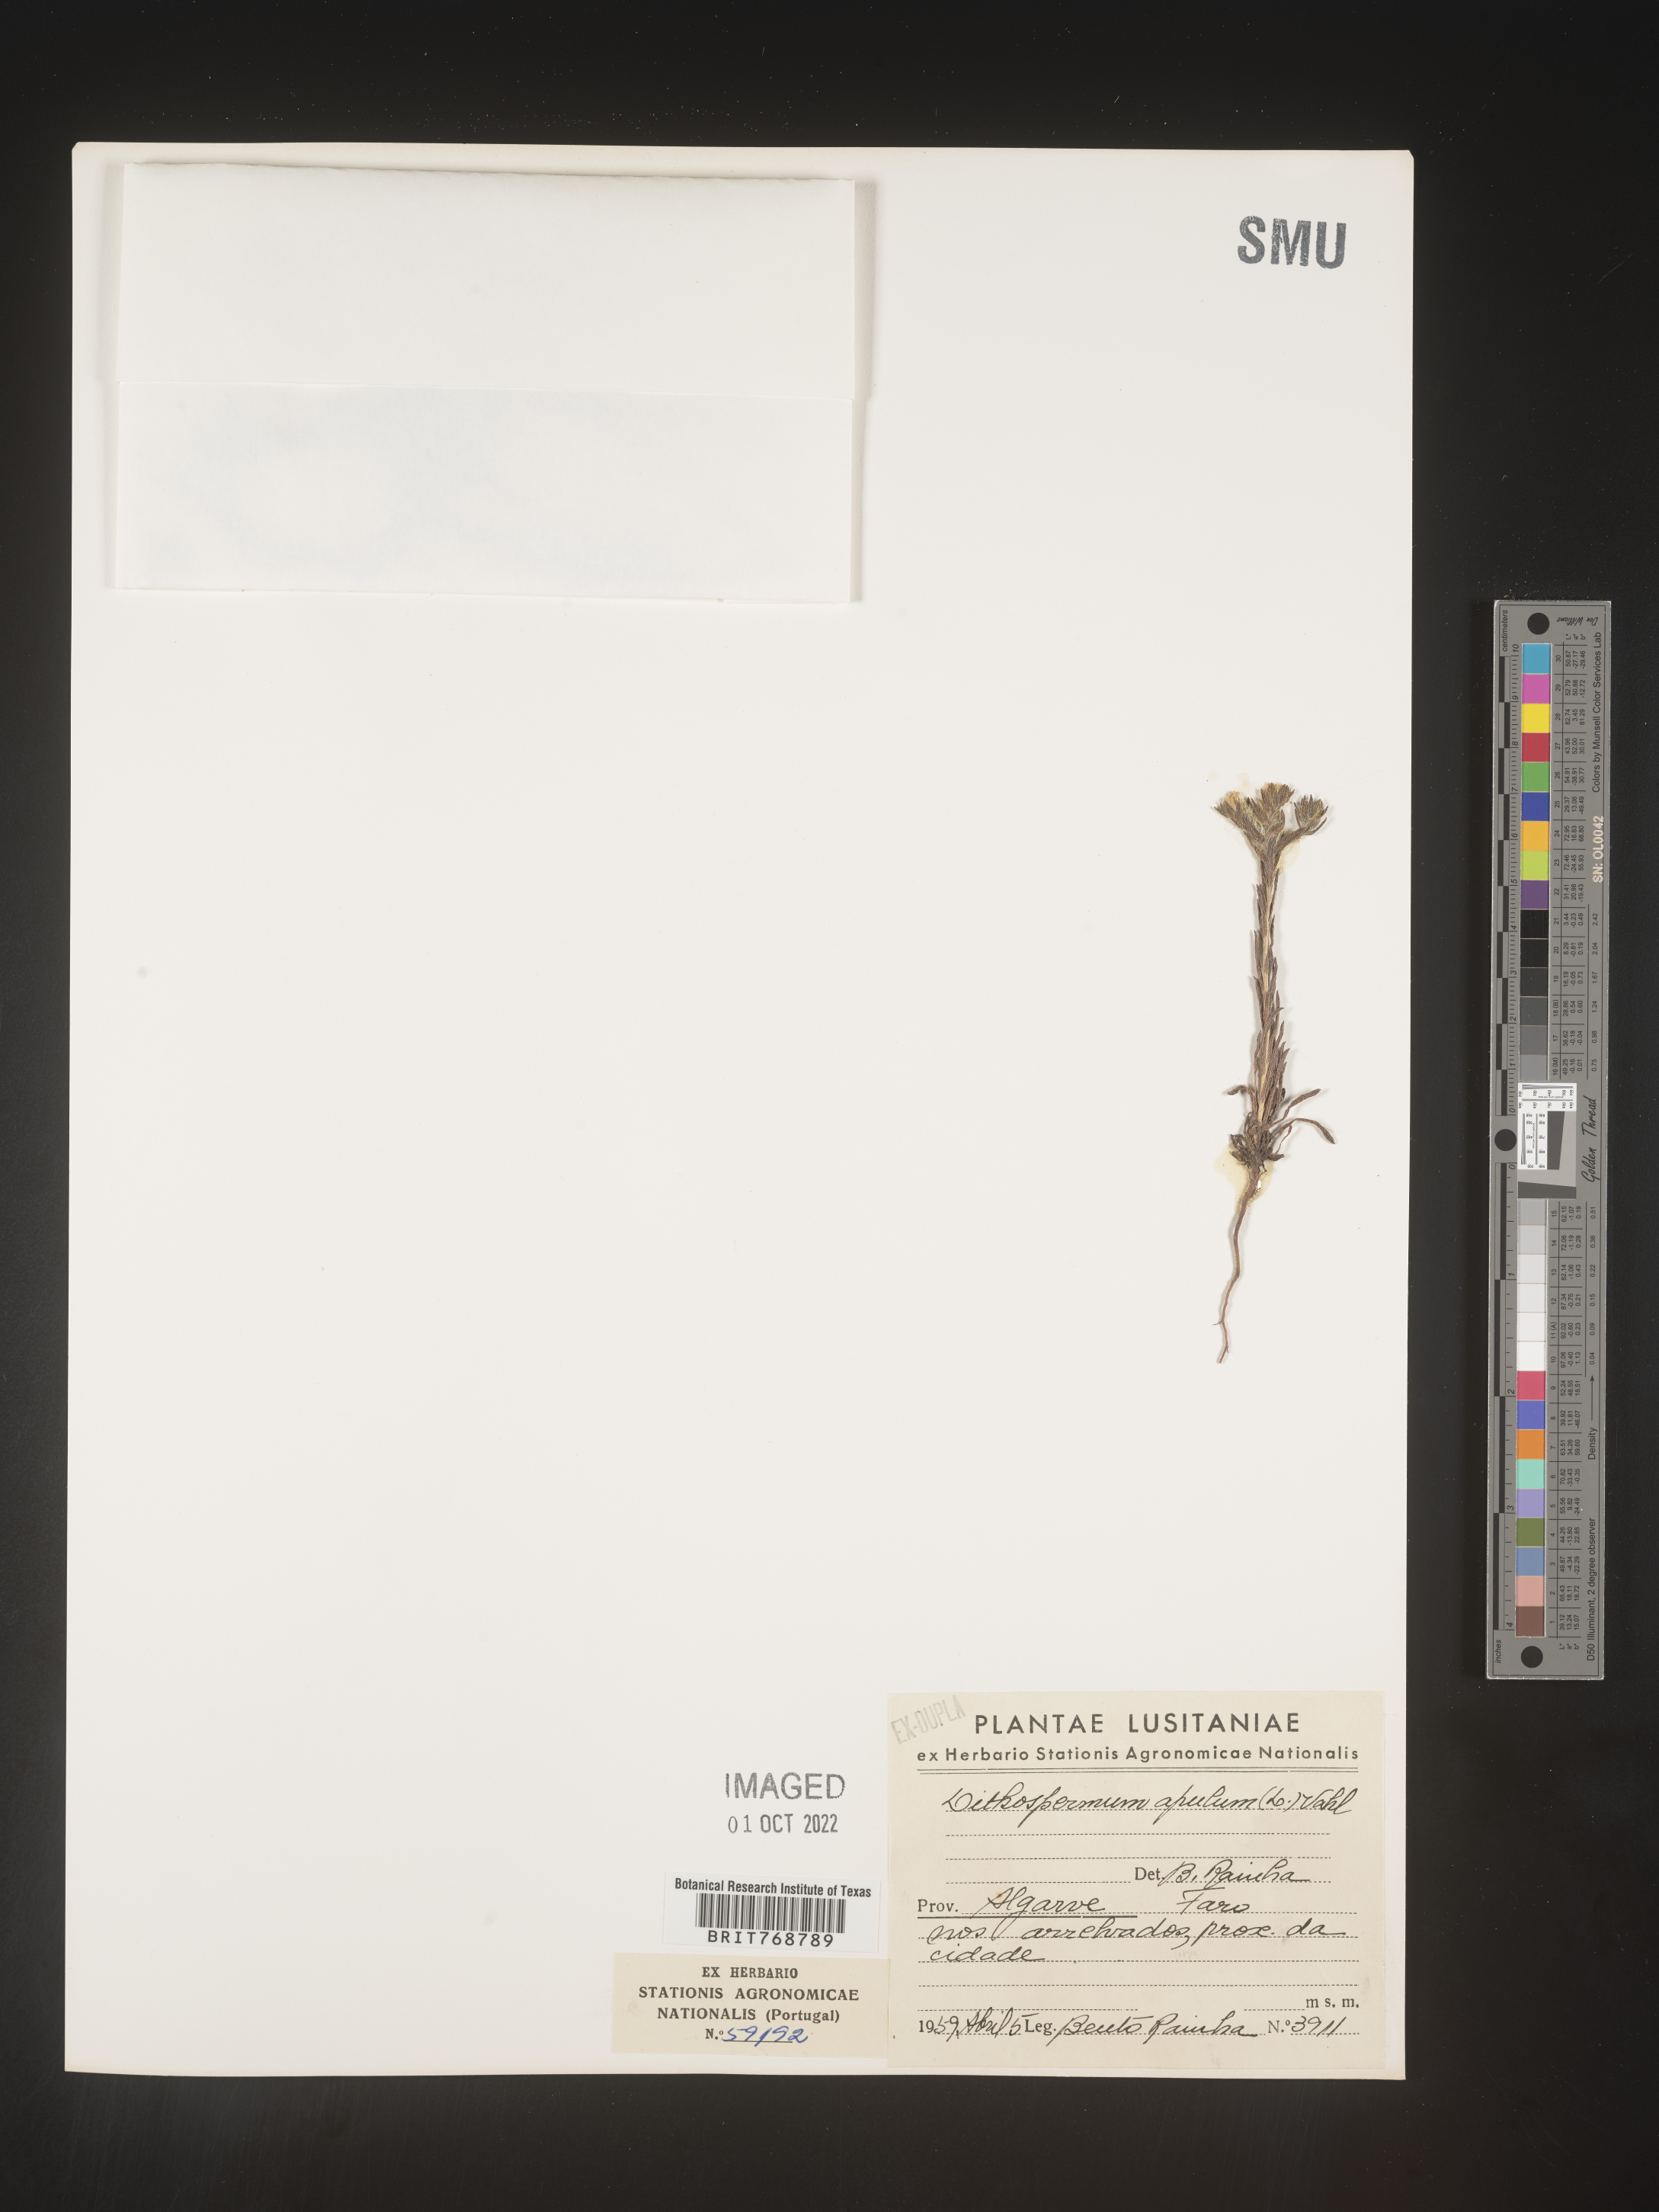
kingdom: Plantae
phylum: Tracheophyta
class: Magnoliopsida
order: Boraginales
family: Boraginaceae
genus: Lithospermum
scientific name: Lithospermum
